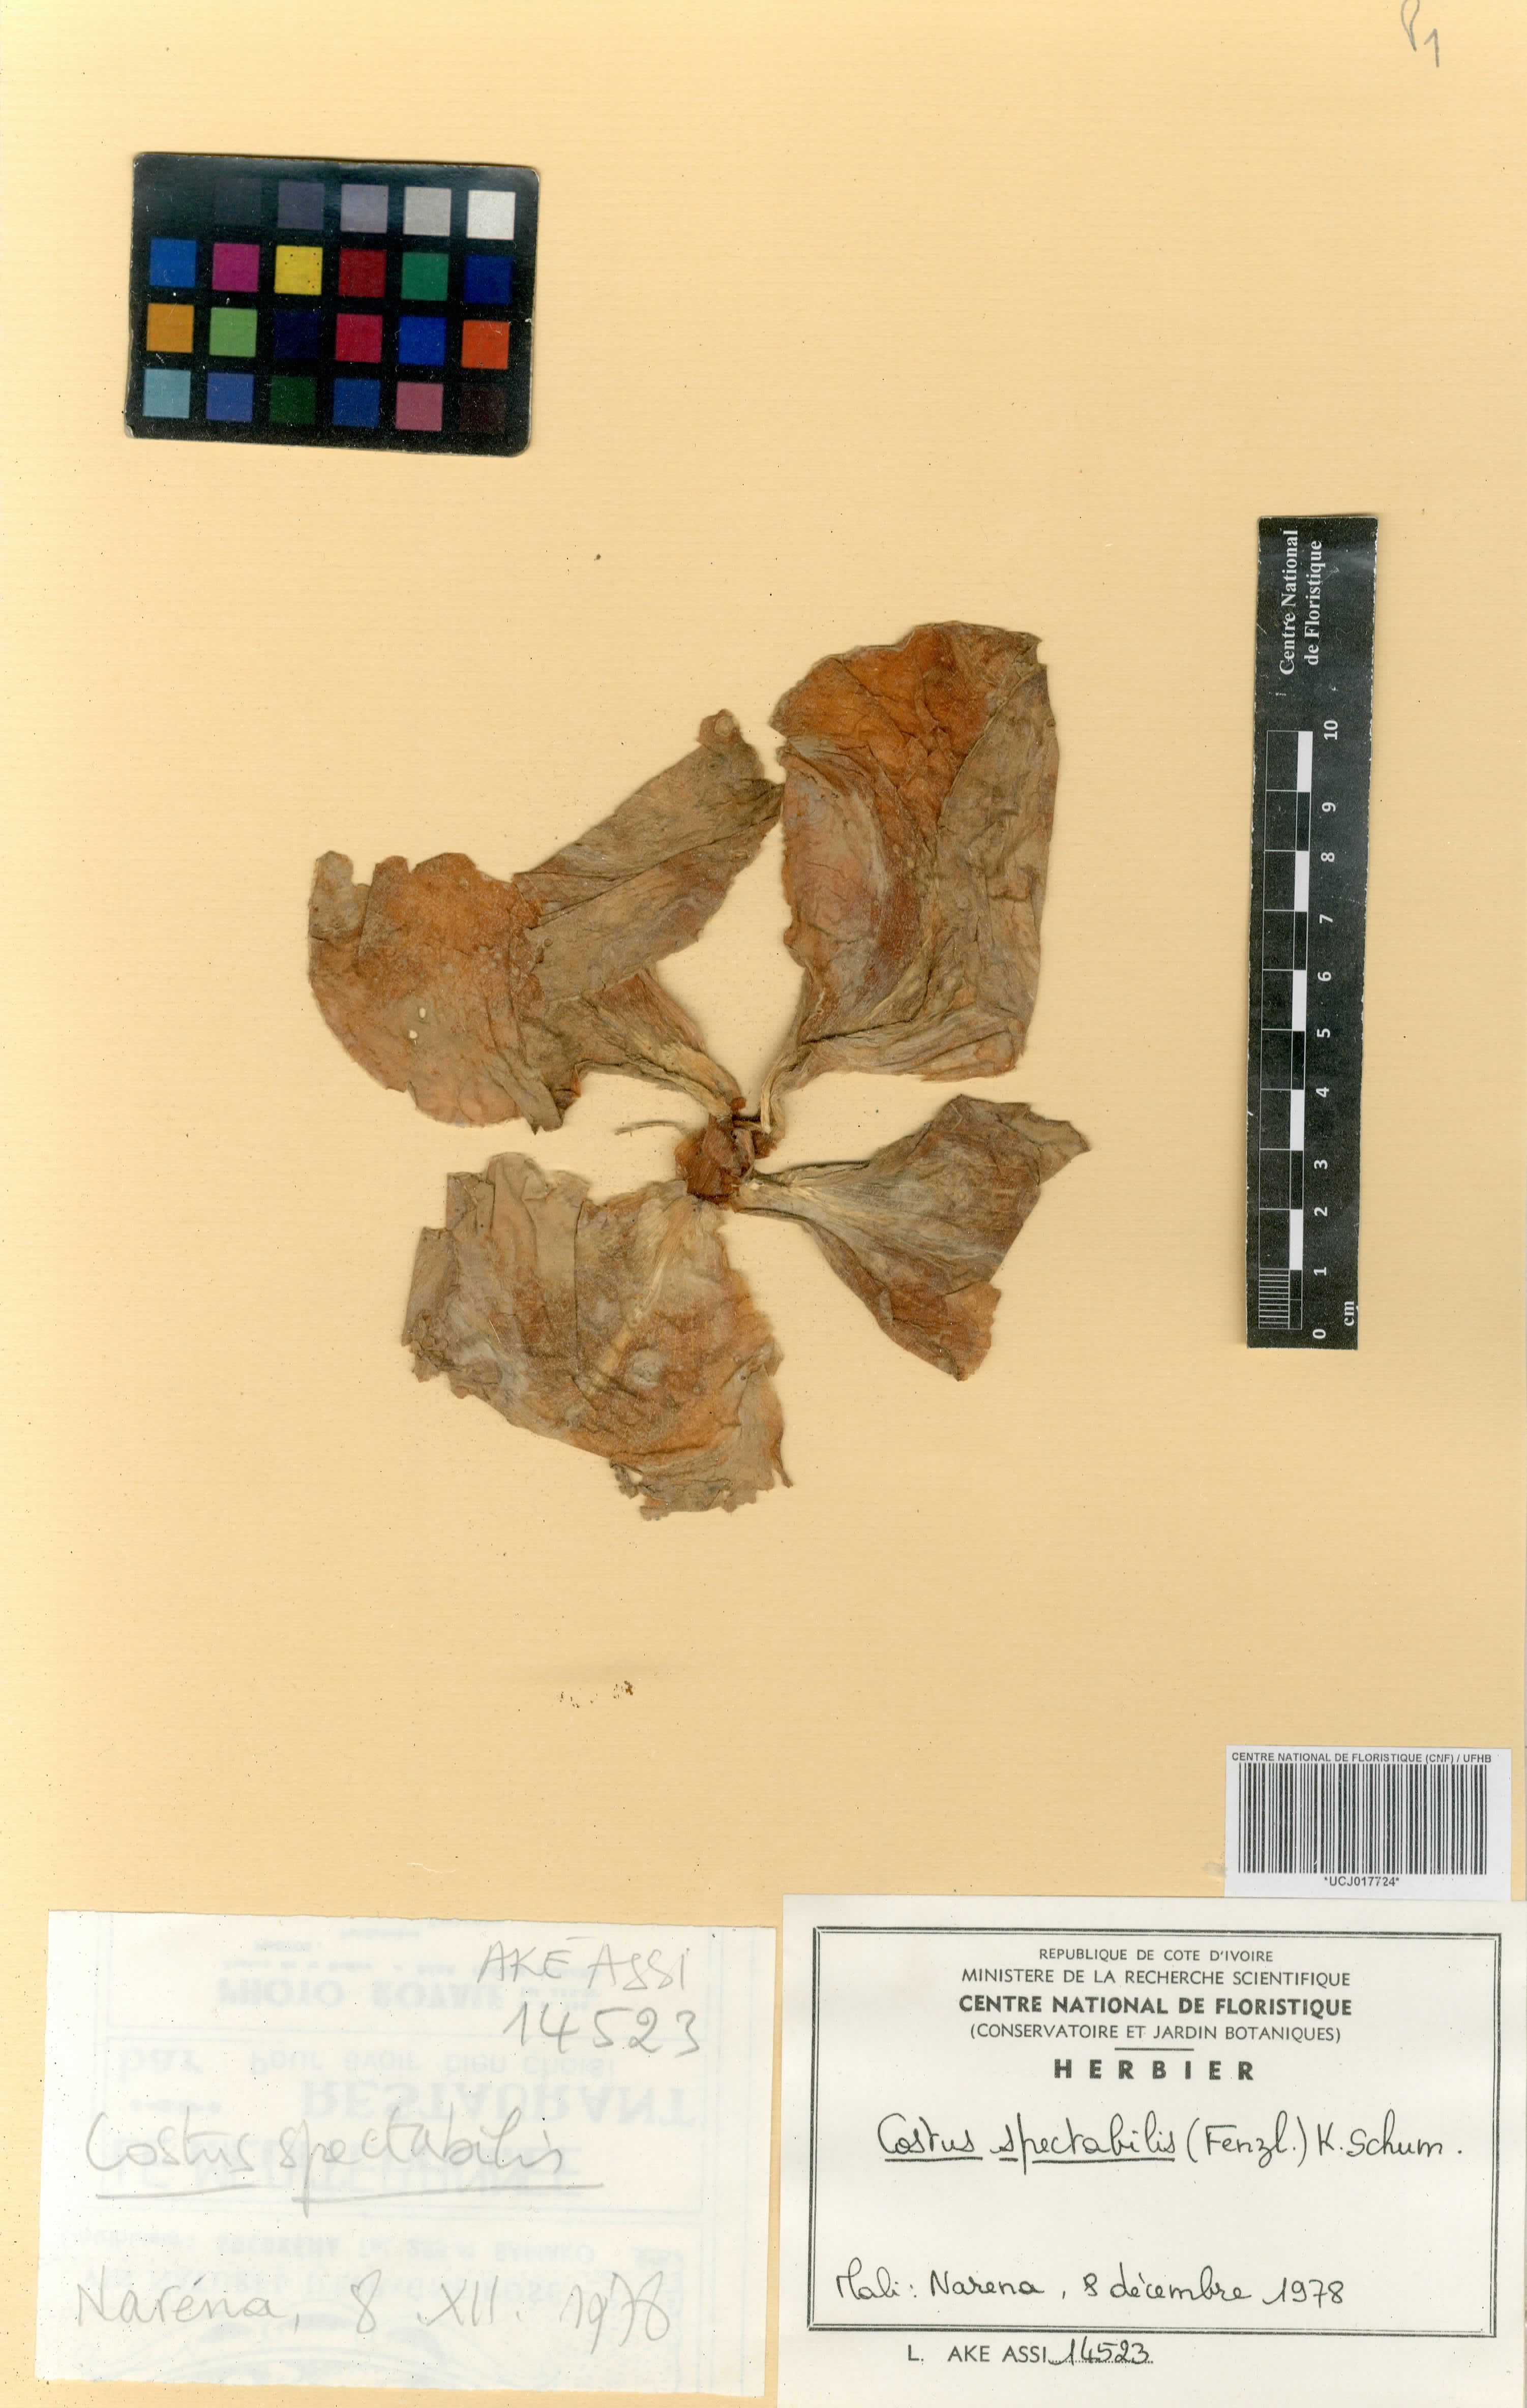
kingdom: Plantae
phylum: Tracheophyta
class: Liliopsida
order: Zingiberales
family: Costaceae
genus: Costus
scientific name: Costus spectabilis
